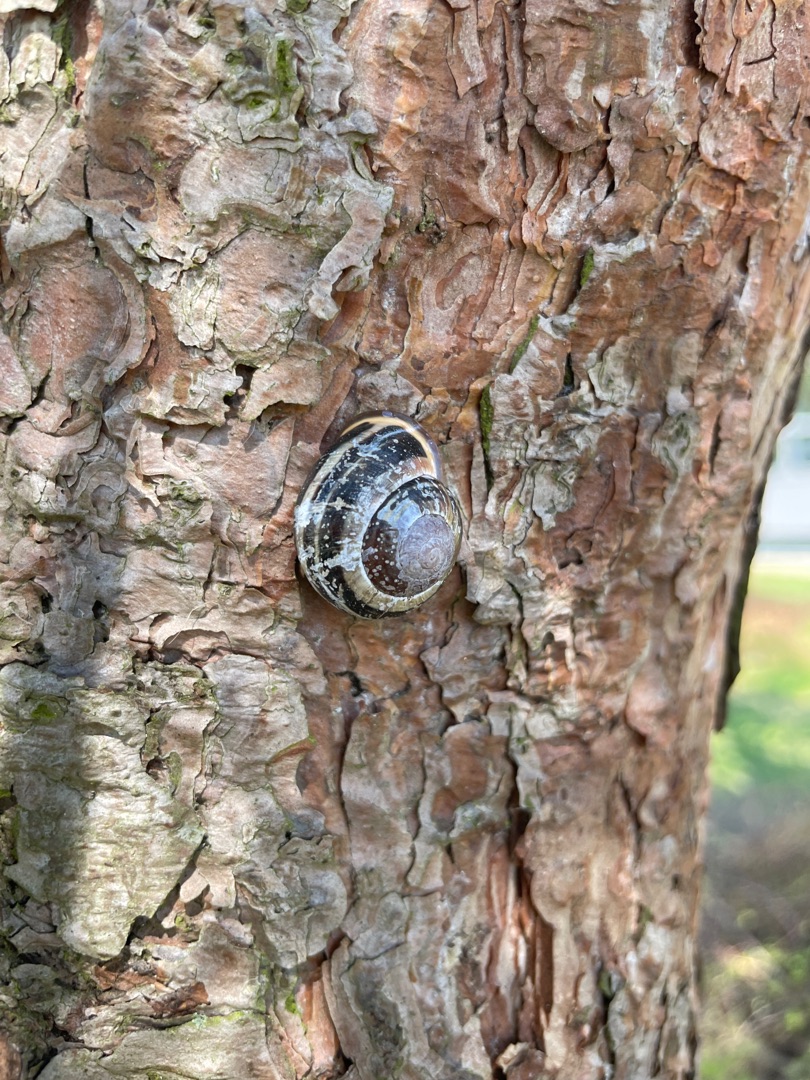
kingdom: Animalia
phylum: Mollusca
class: Gastropoda
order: Stylommatophora
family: Helicidae
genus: Cepaea
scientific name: Cepaea nemoralis
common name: Lundsnegl
